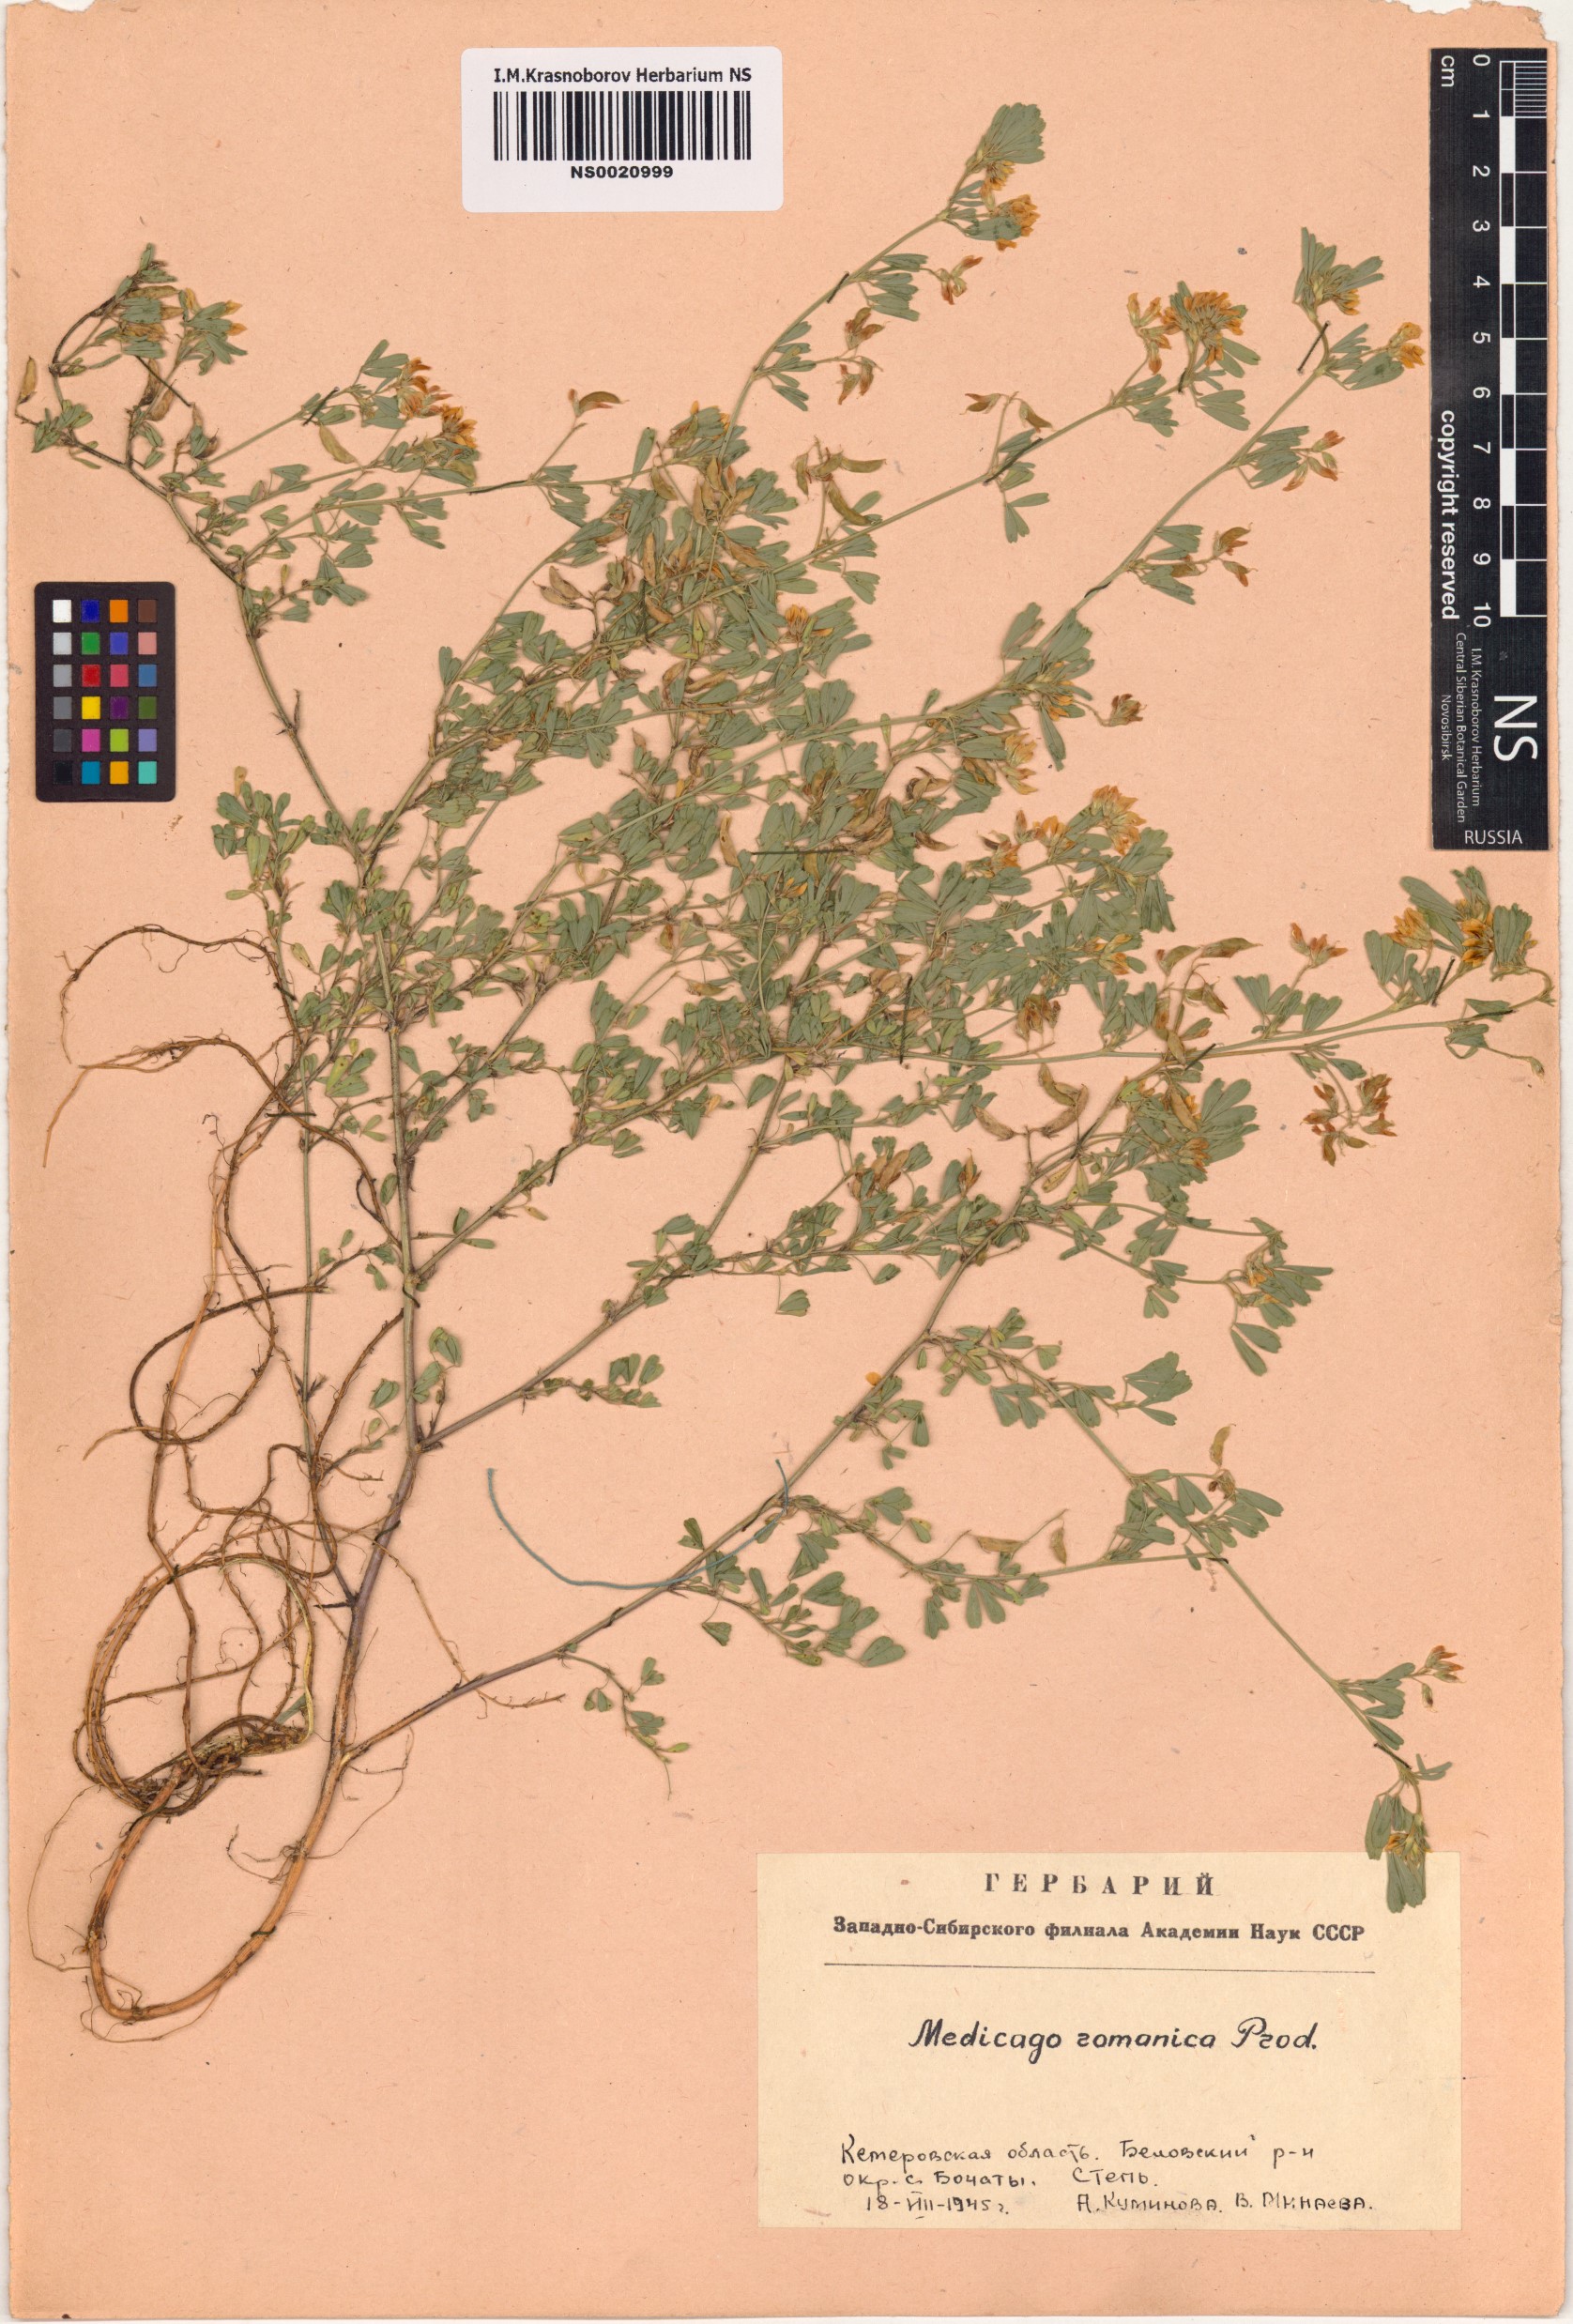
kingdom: Plantae
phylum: Tracheophyta
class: Magnoliopsida
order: Fabales
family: Fabaceae
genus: Medicago
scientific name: Medicago falcata
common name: Sickle medick
